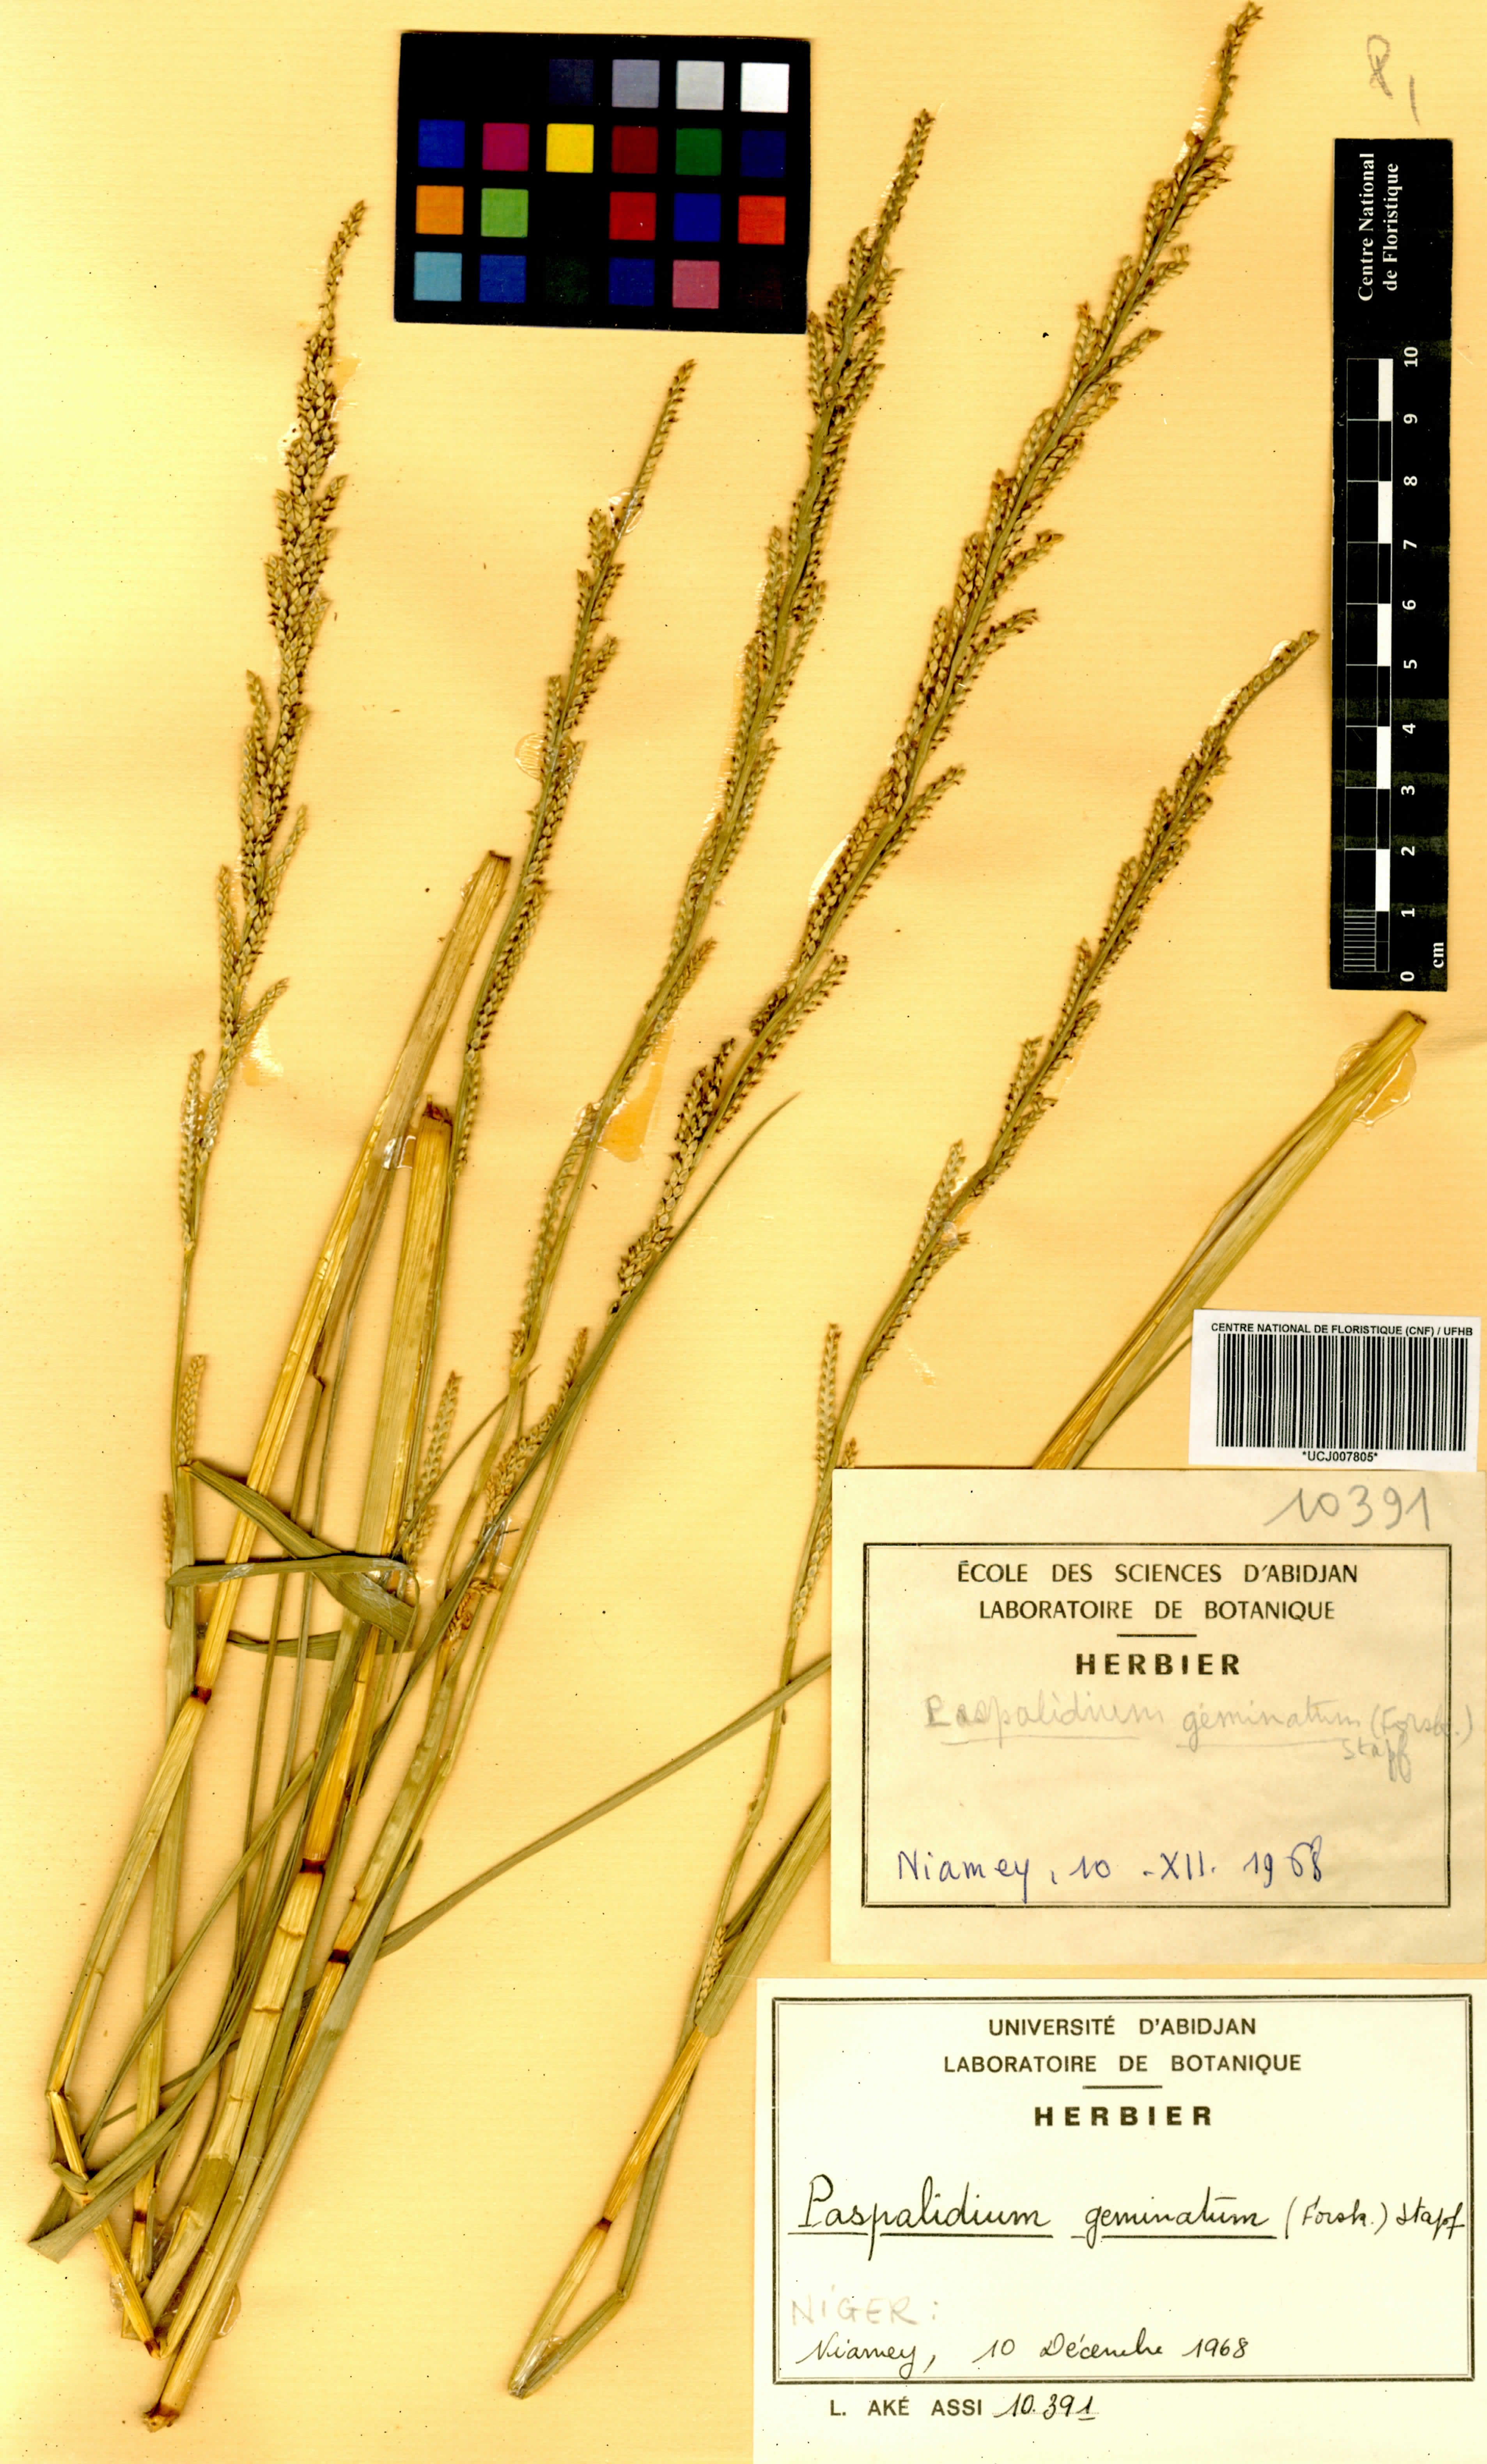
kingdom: Plantae
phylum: Tracheophyta
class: Liliopsida
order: Poales
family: Poaceae
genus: Setaria
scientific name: Setaria geminata
